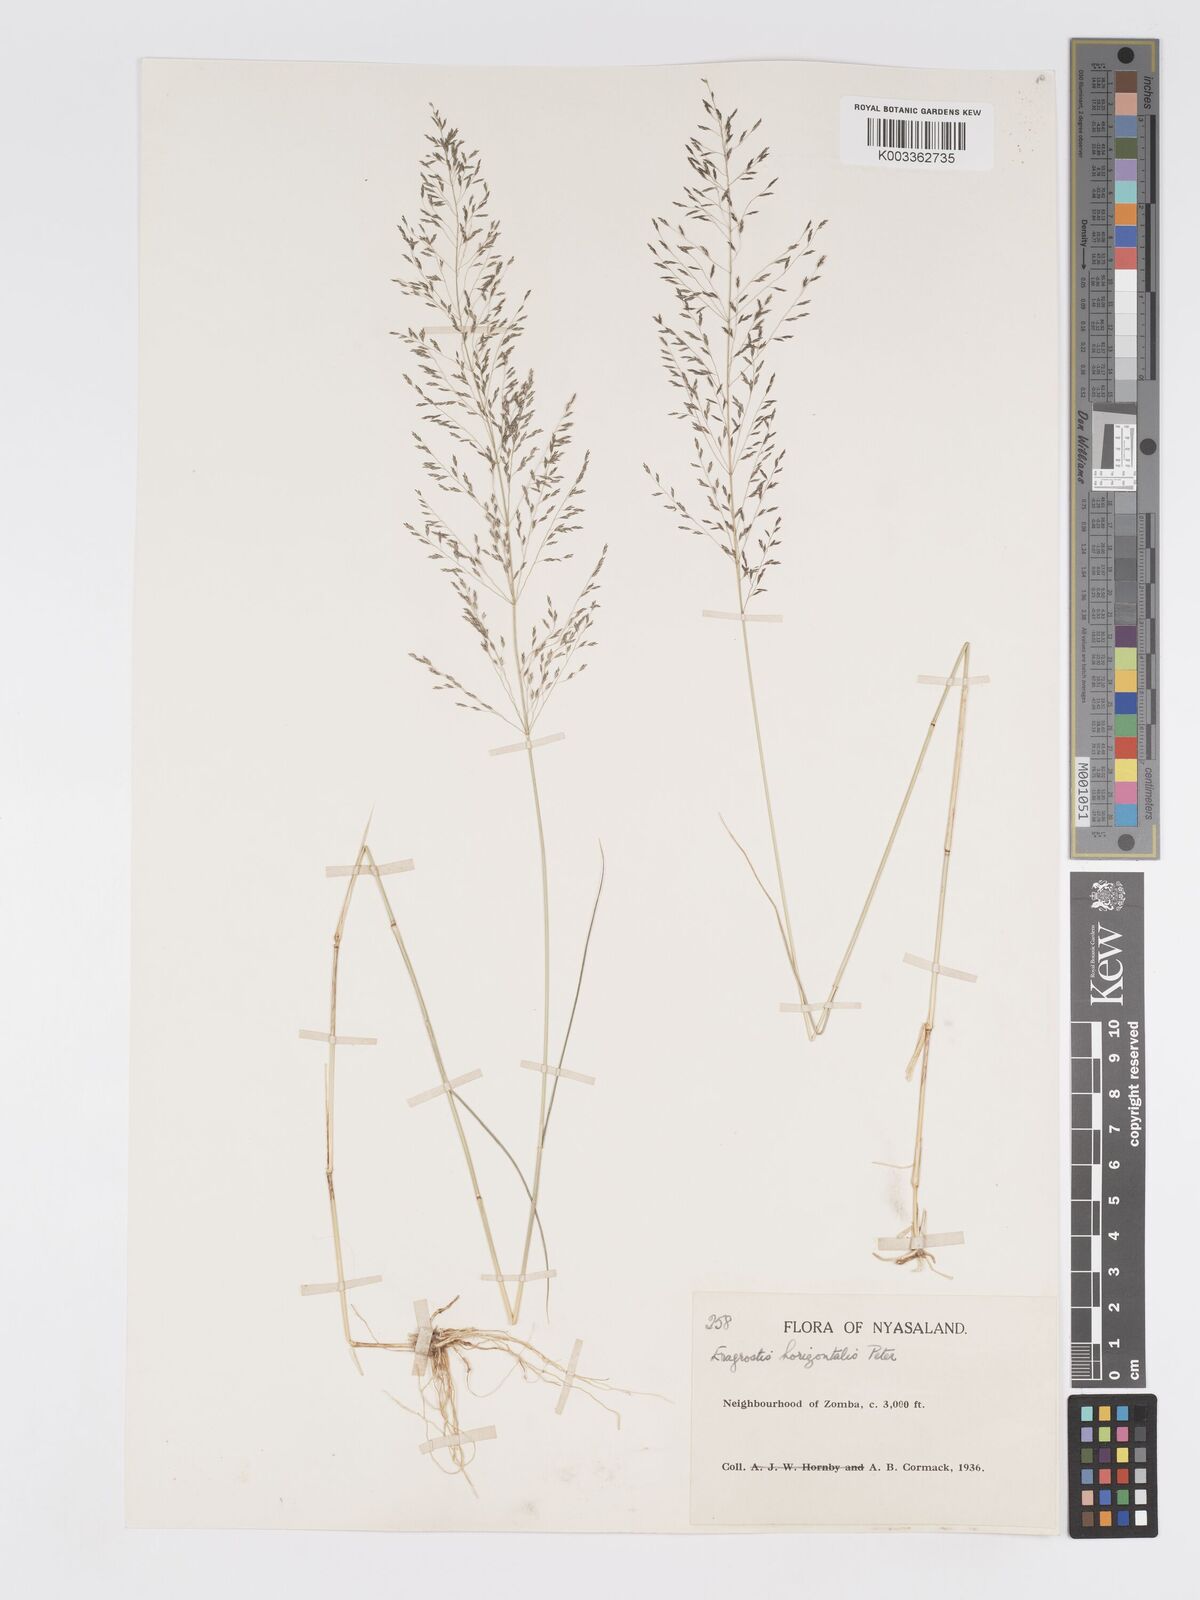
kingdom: Plantae
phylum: Tracheophyta
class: Liliopsida
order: Poales
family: Poaceae
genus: Eragrostis
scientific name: Eragrostis cylindriflora
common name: Cylinderflower lovegrass
